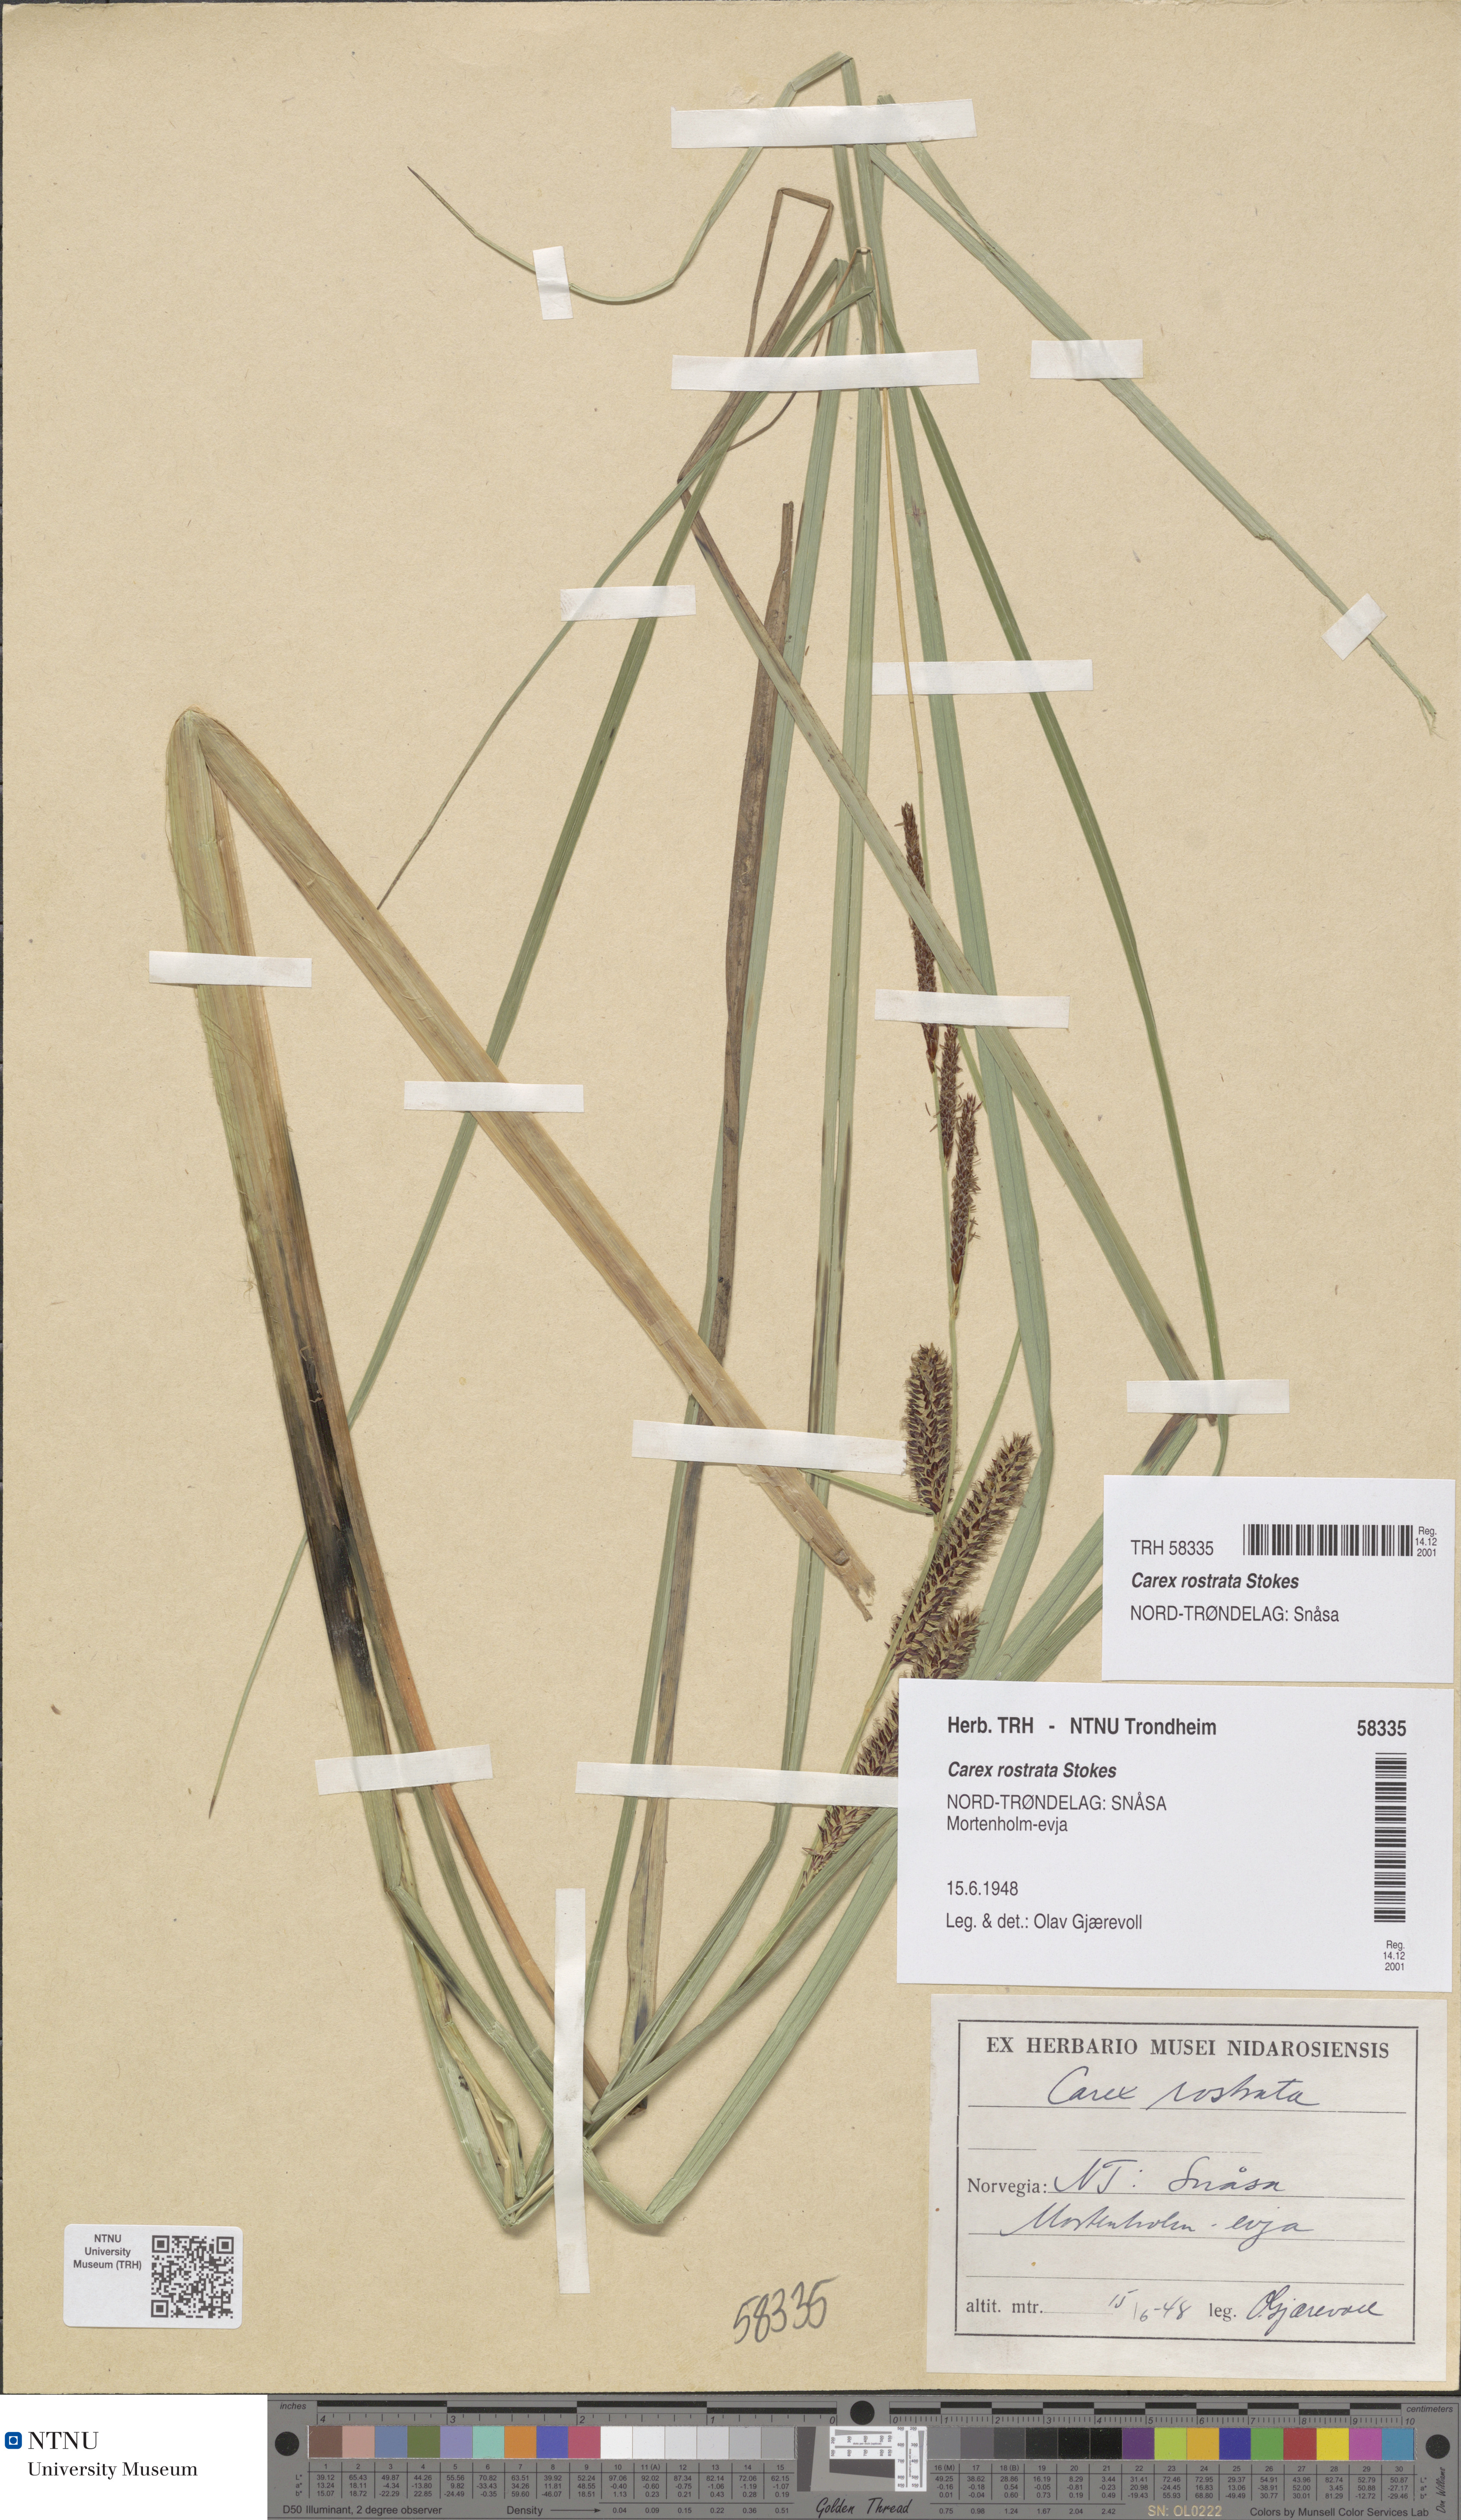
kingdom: Plantae
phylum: Tracheophyta
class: Liliopsida
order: Poales
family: Cyperaceae
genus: Carex
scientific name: Carex rostrata
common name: Bottle sedge
